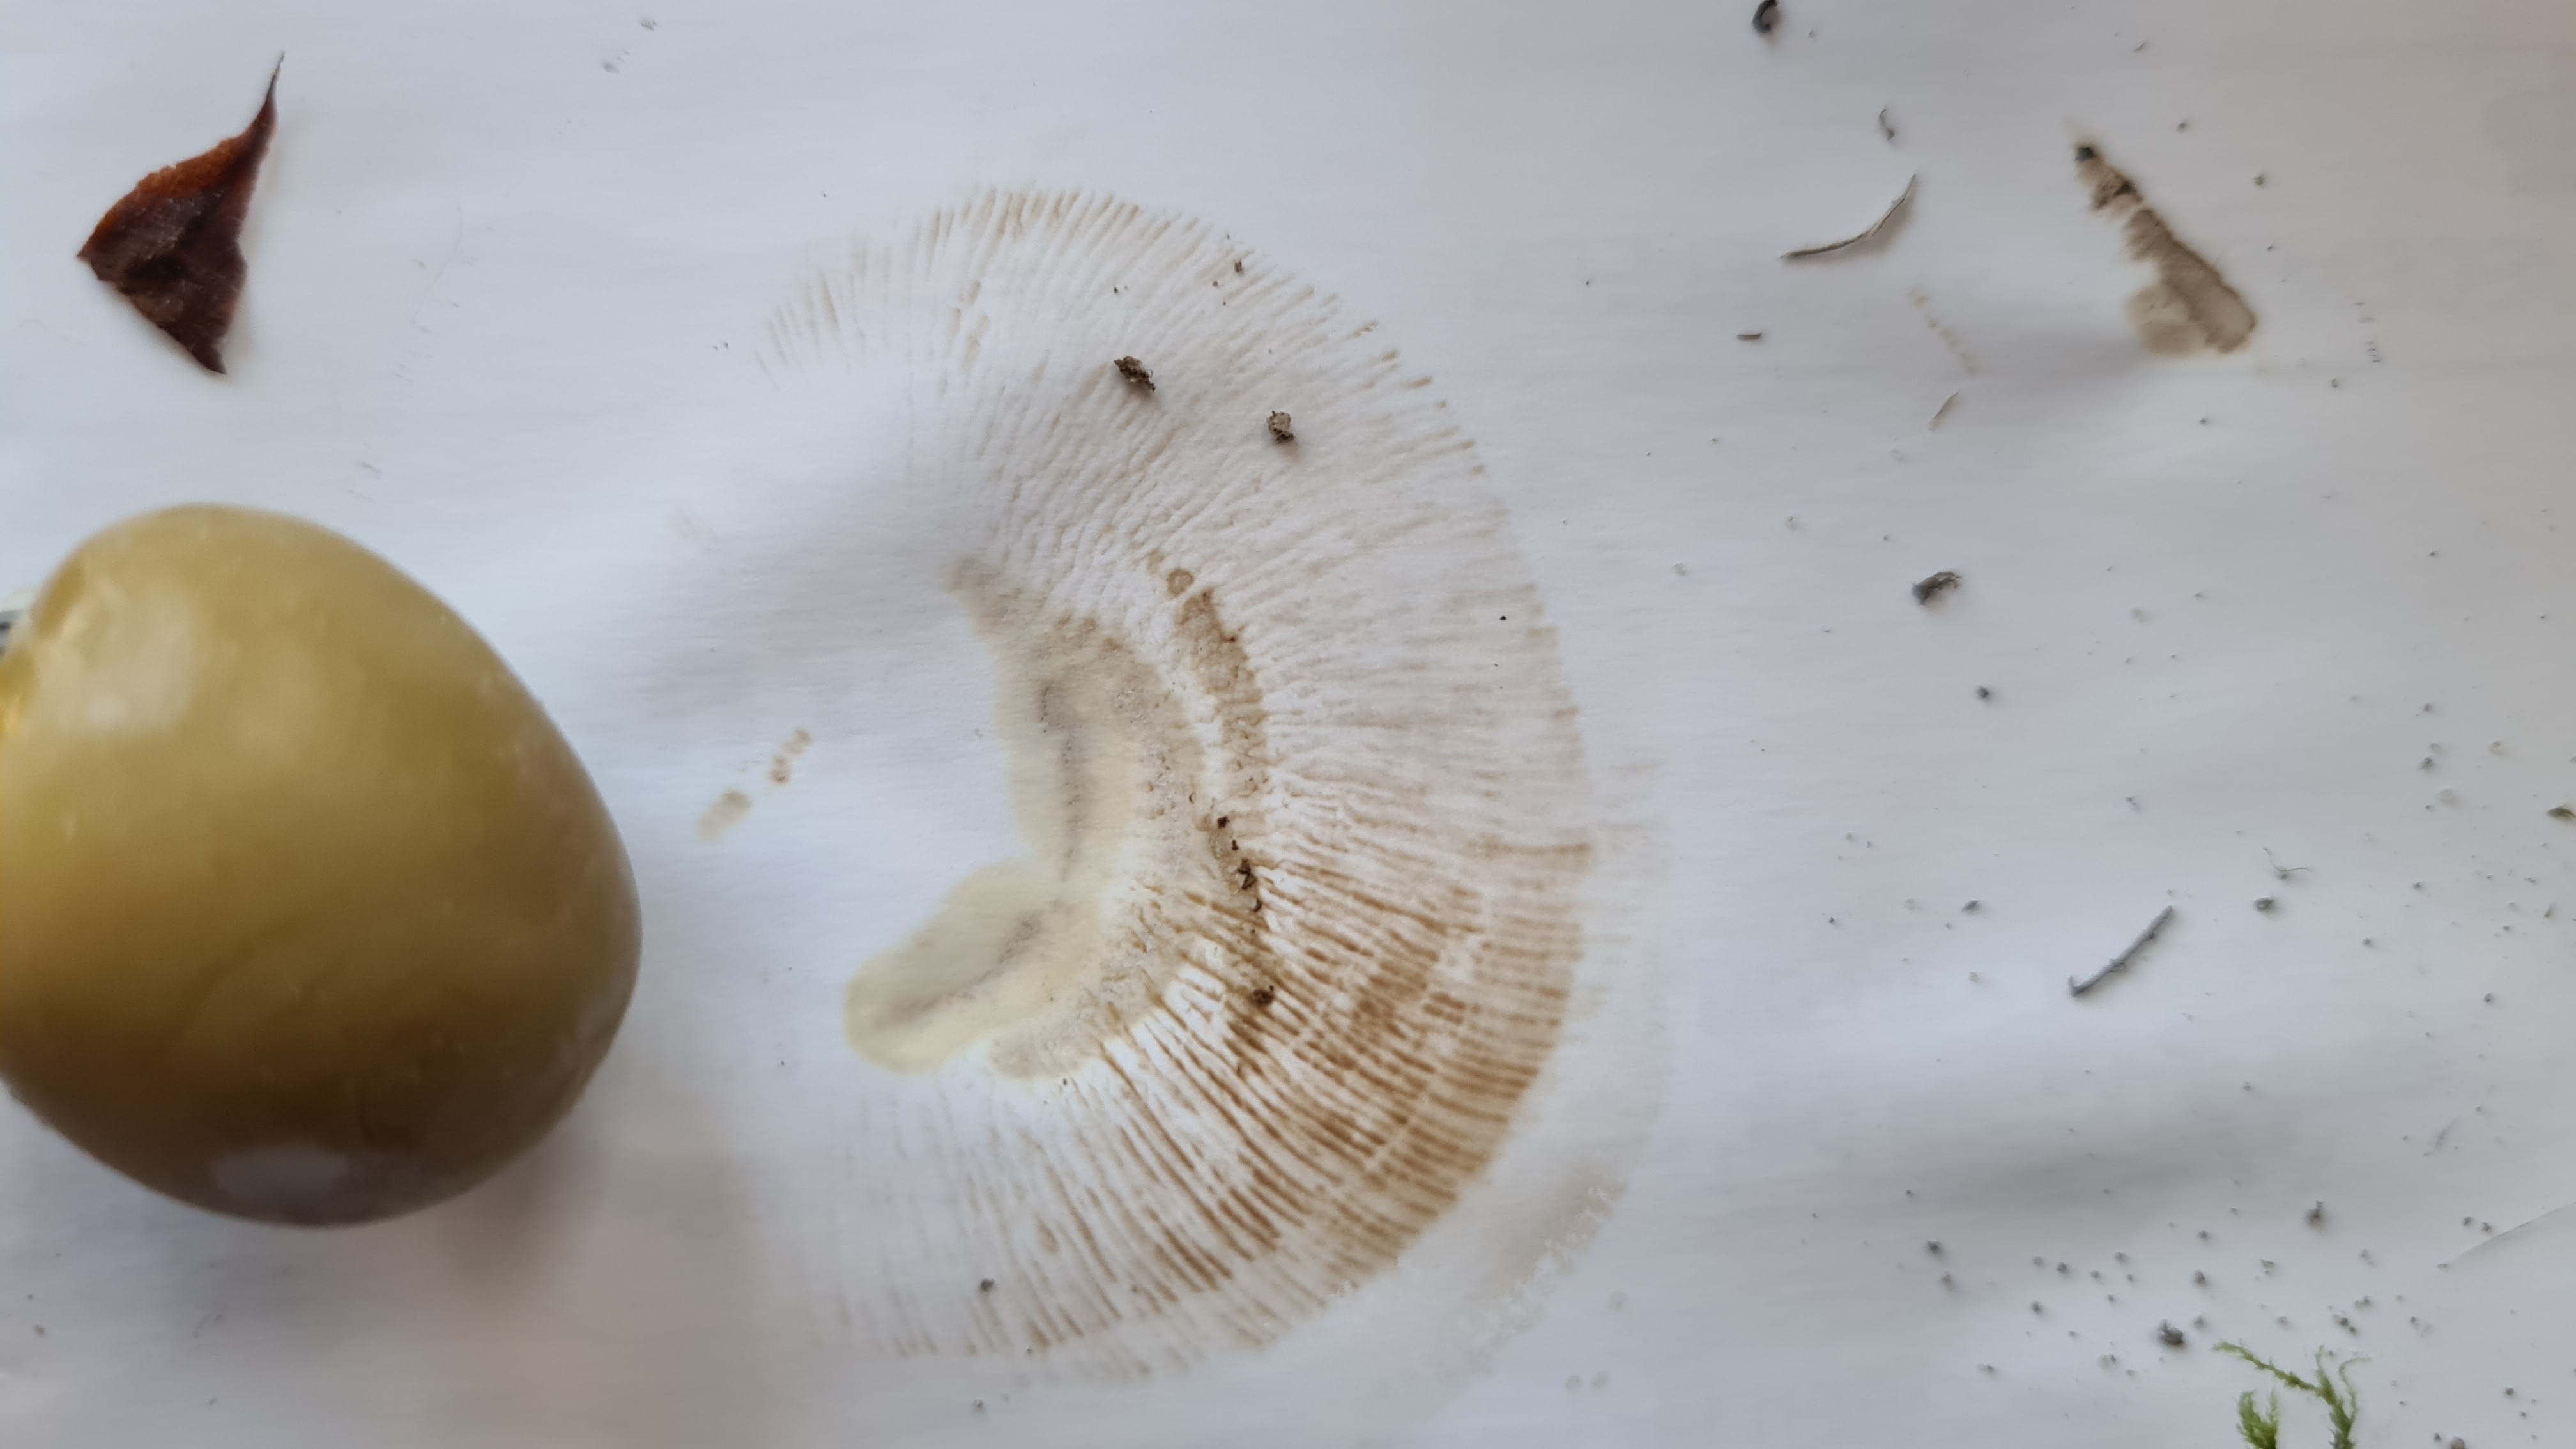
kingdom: Fungi
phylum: Basidiomycota
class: Agaricomycetes
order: Boletales
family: Paxillaceae
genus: Paxillus
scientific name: Paxillus ammoniavirescens
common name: olivensporet netbladhat
